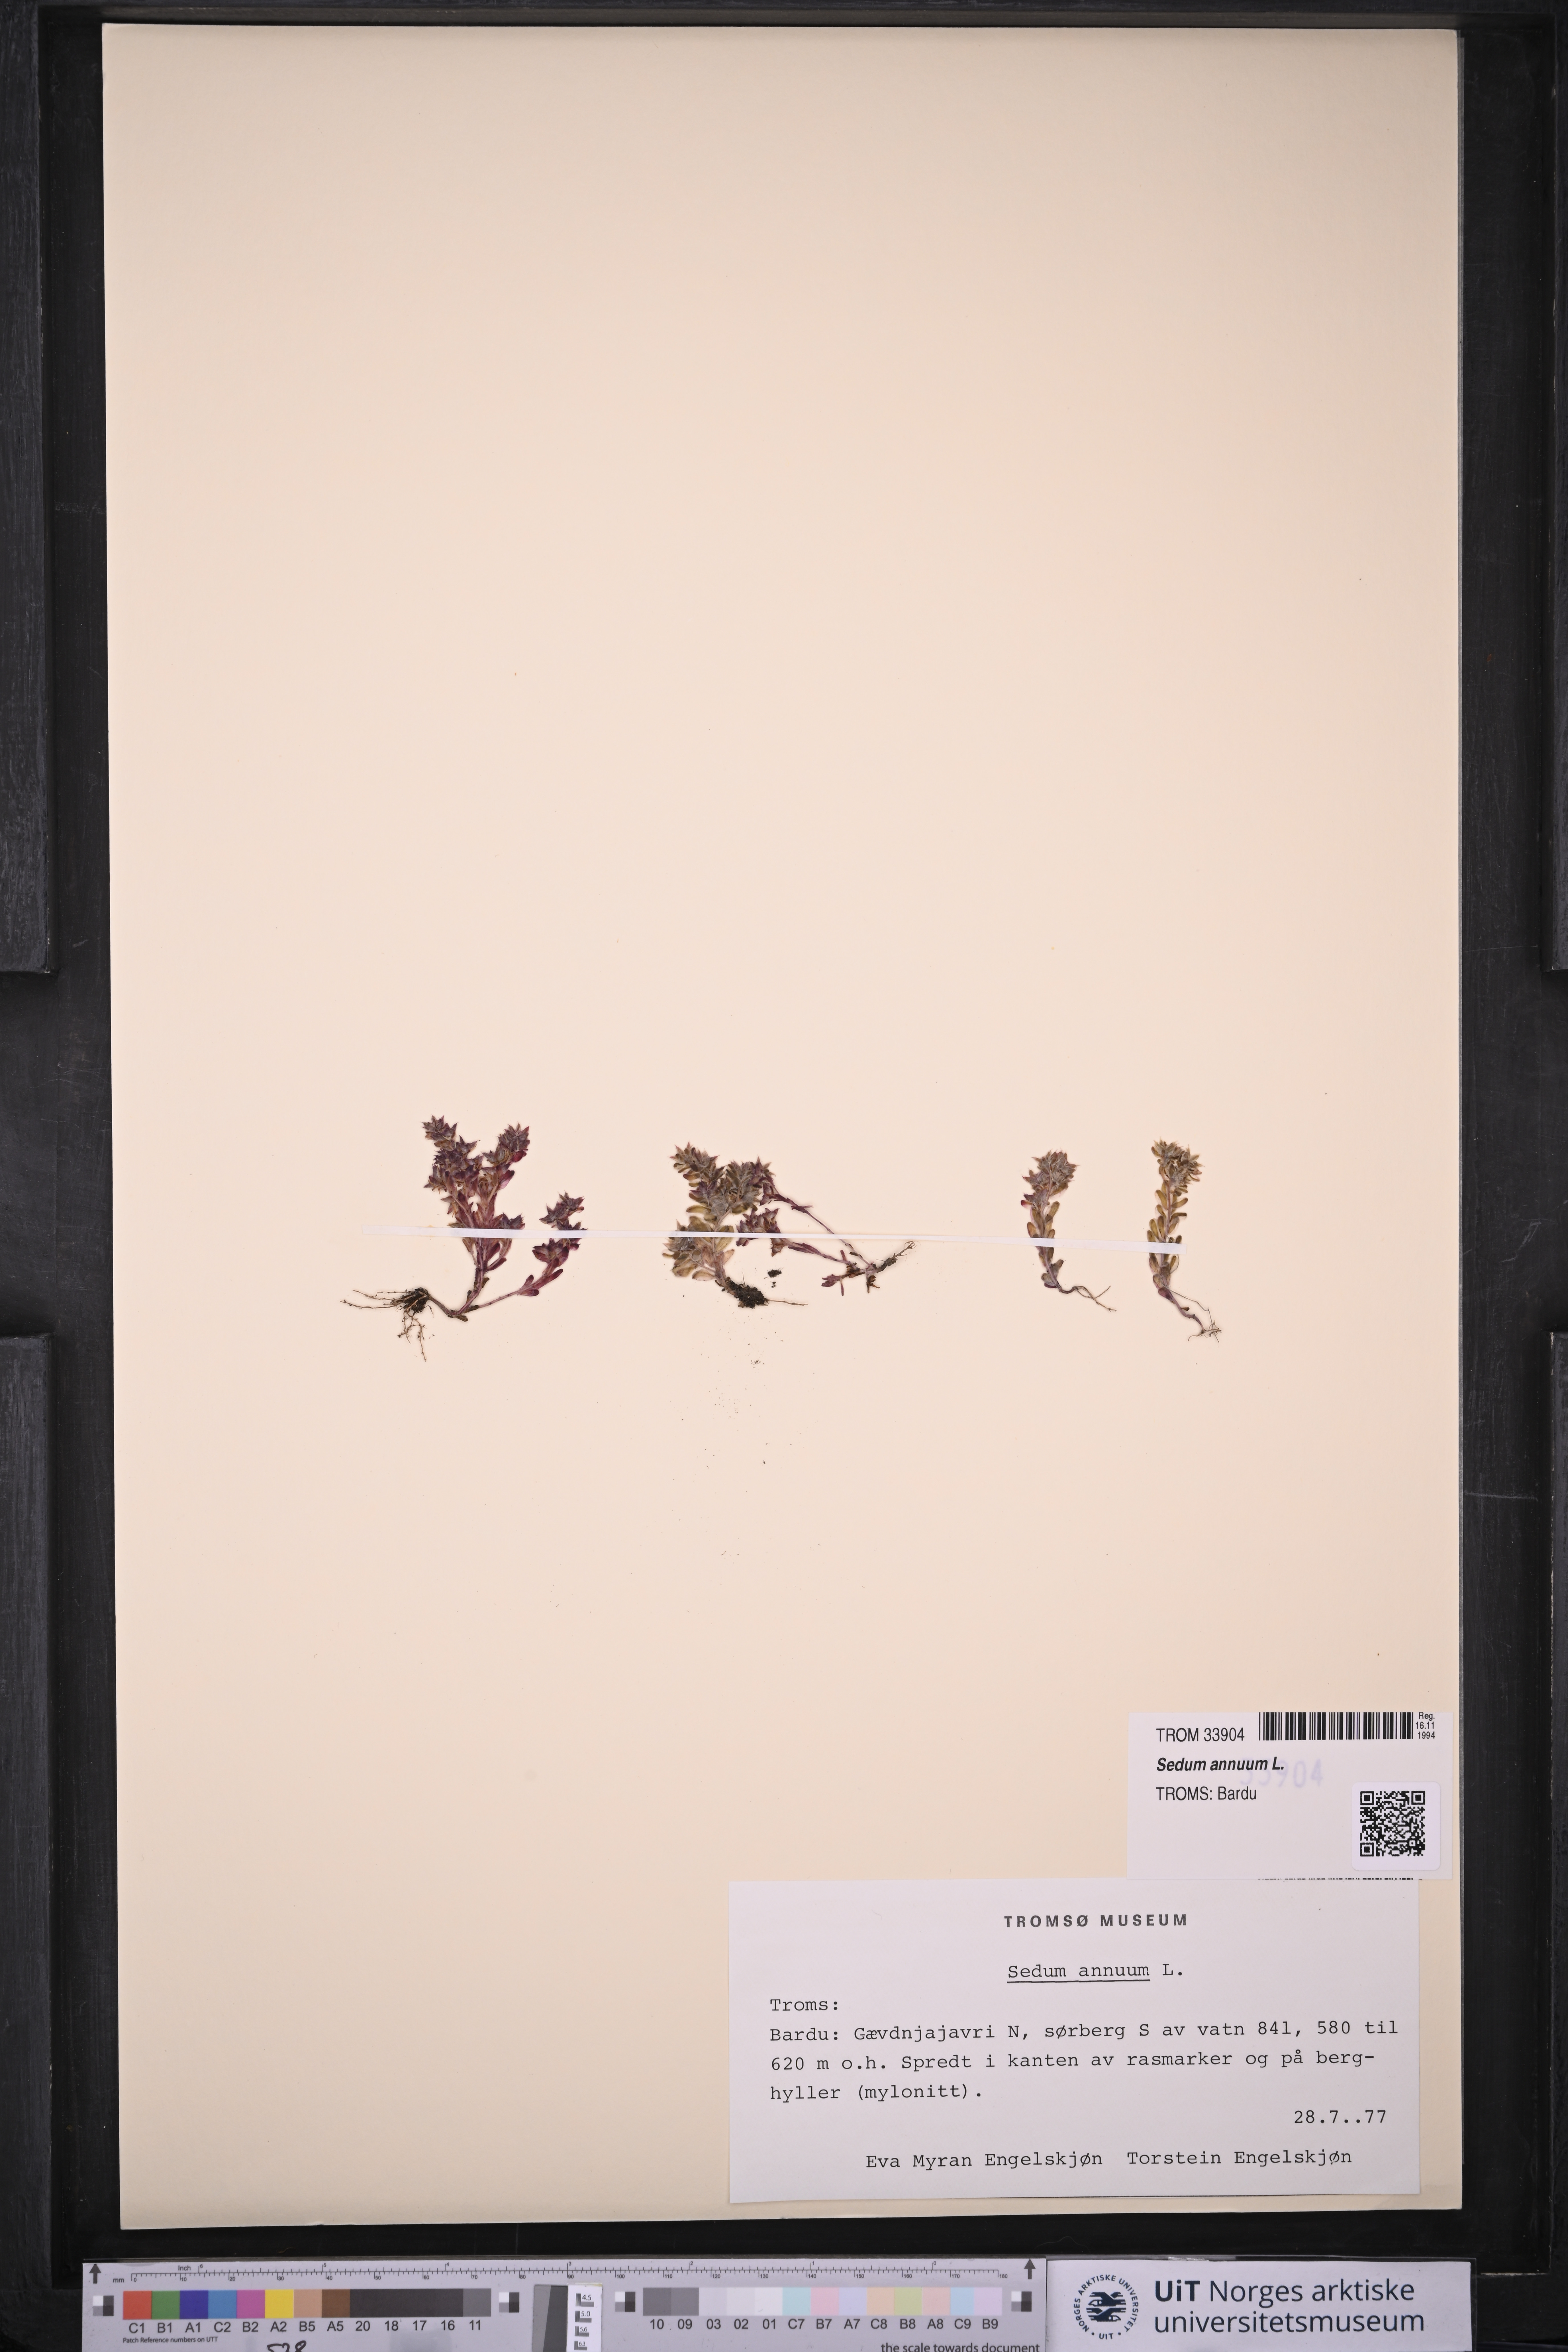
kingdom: Plantae
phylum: Tracheophyta
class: Magnoliopsida
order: Saxifragales
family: Crassulaceae
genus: Sedum
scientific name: Sedum annuum
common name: Annual stonecrop
